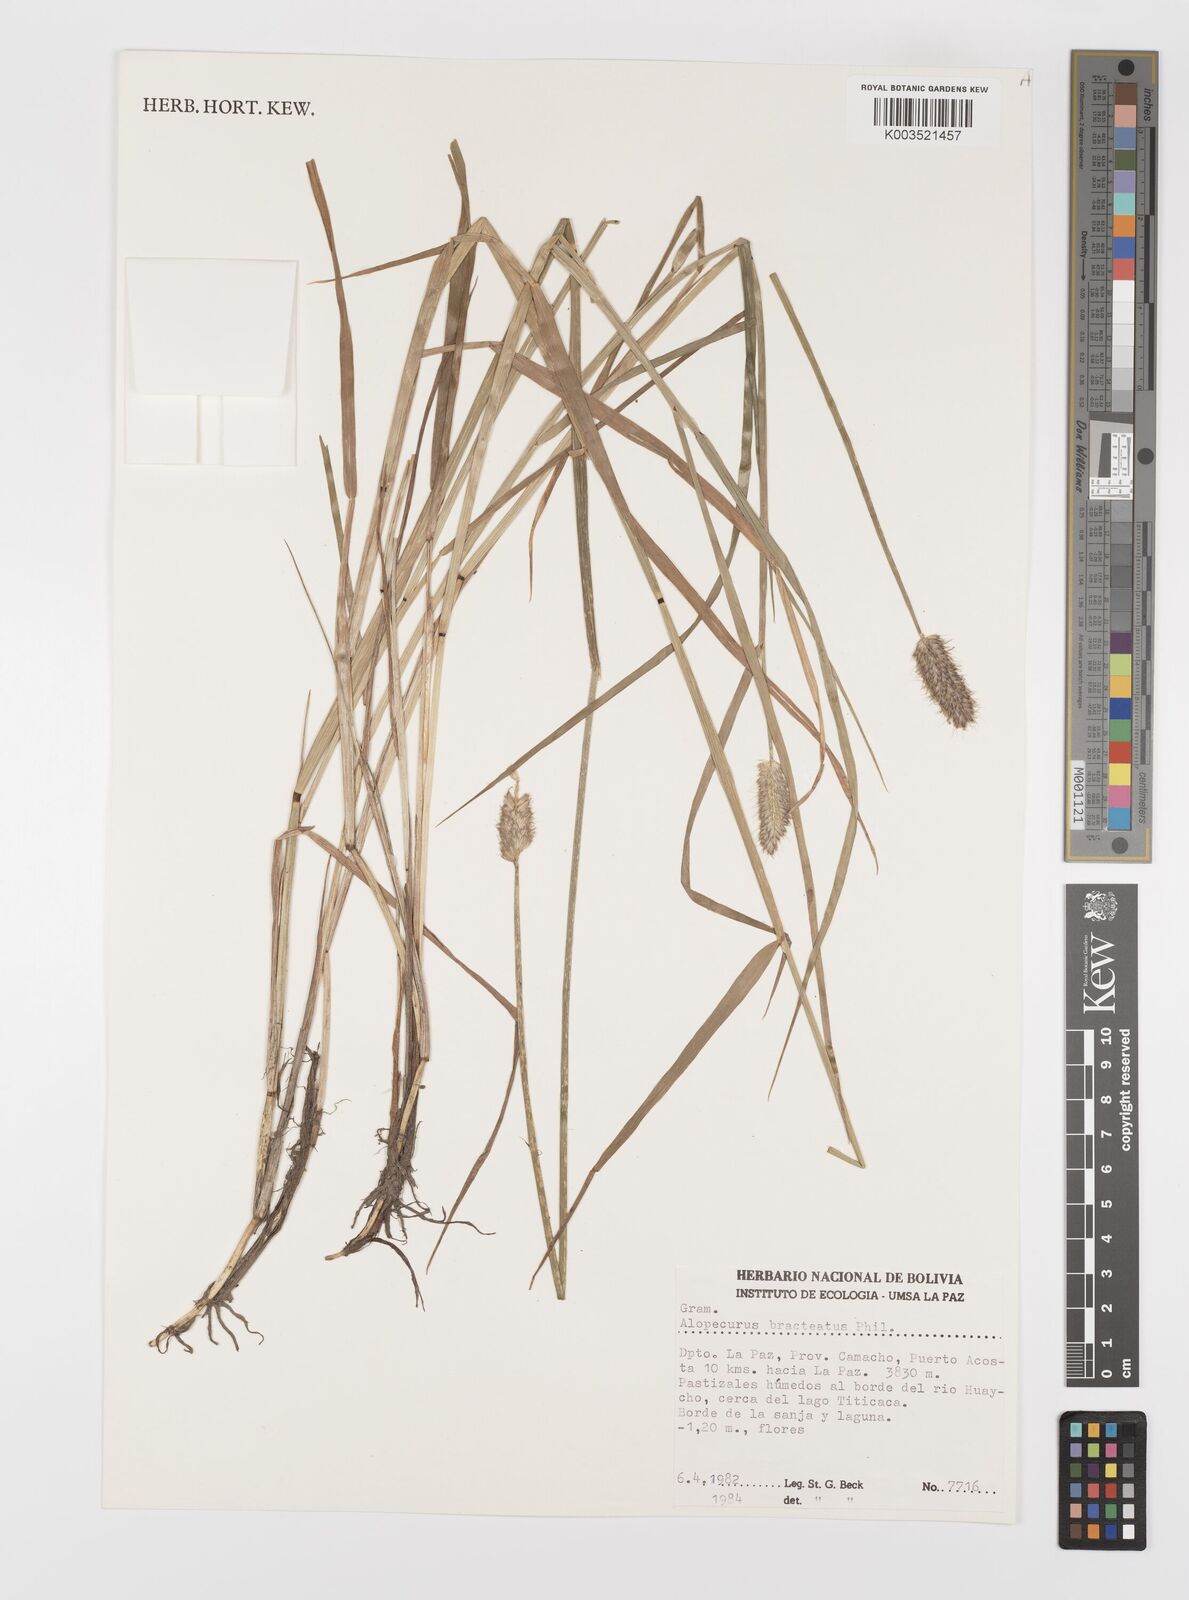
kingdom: Plantae
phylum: Tracheophyta
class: Liliopsida
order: Poales
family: Poaceae
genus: Alopecurus
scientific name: Alopecurus magellanicus
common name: Alpine foxtail
